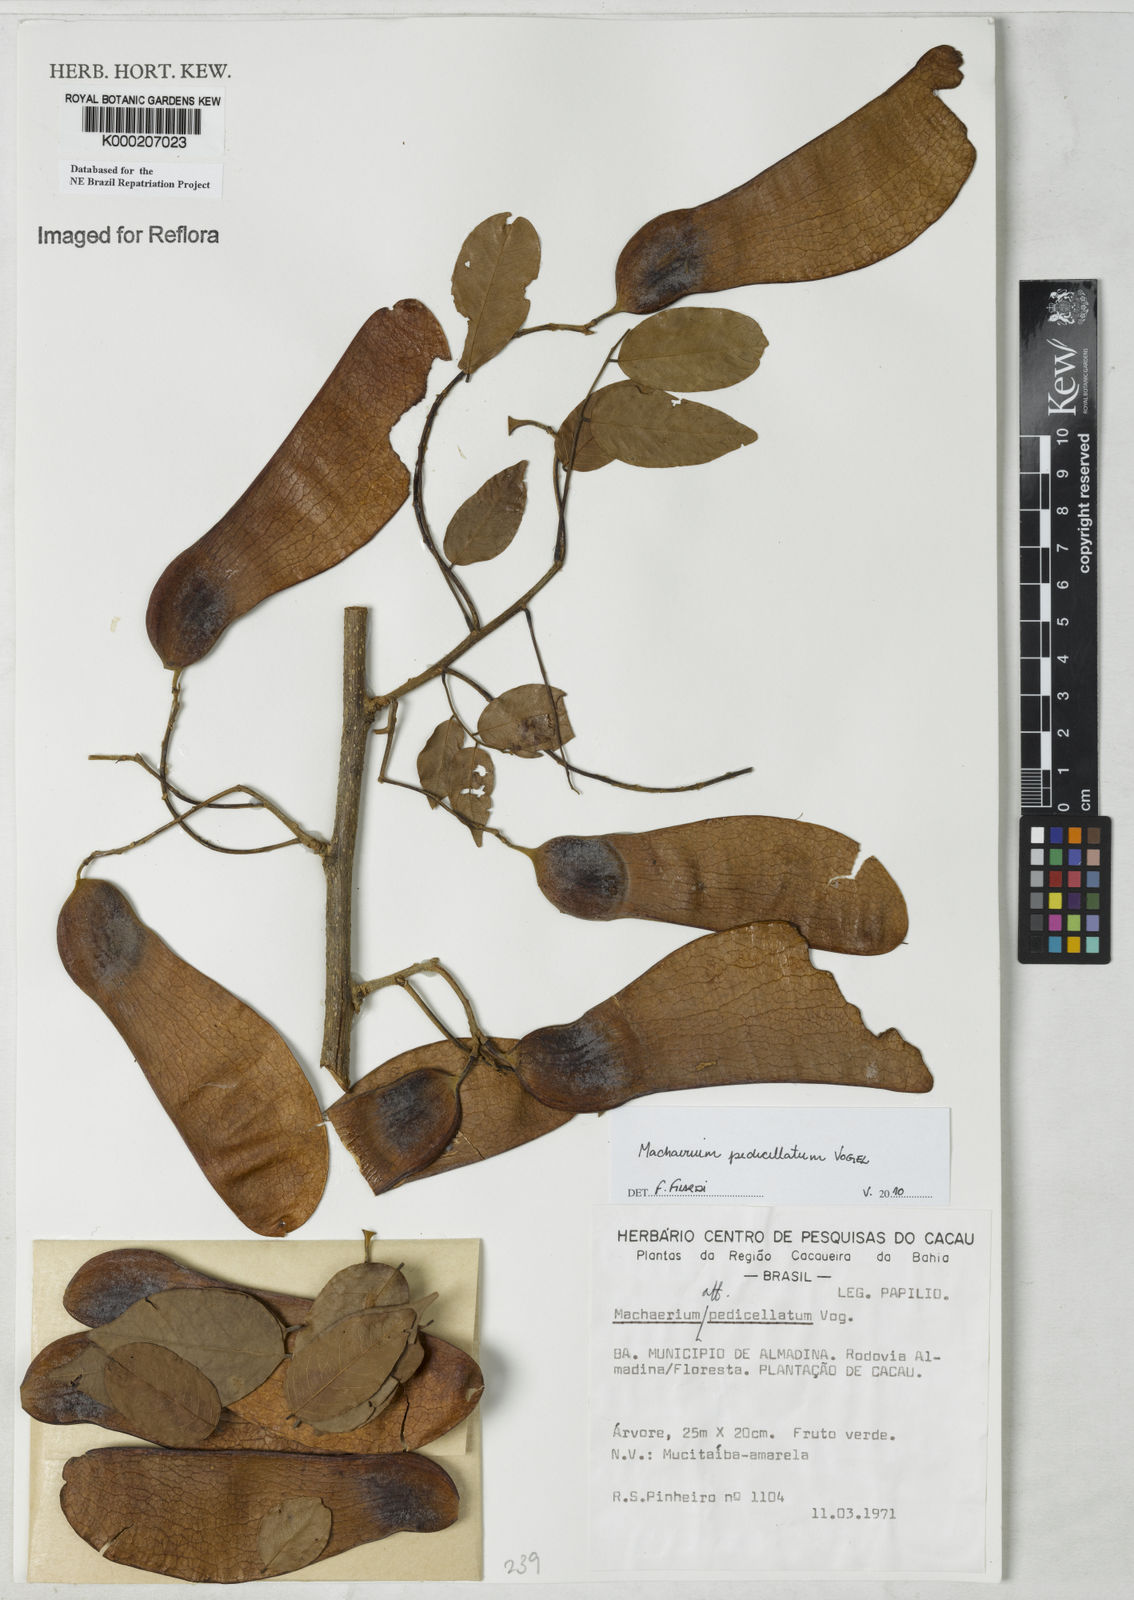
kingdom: Plantae
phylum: Tracheophyta
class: Magnoliopsida
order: Fabales
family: Fabaceae
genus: Machaerium
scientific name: Machaerium pedicellatum
